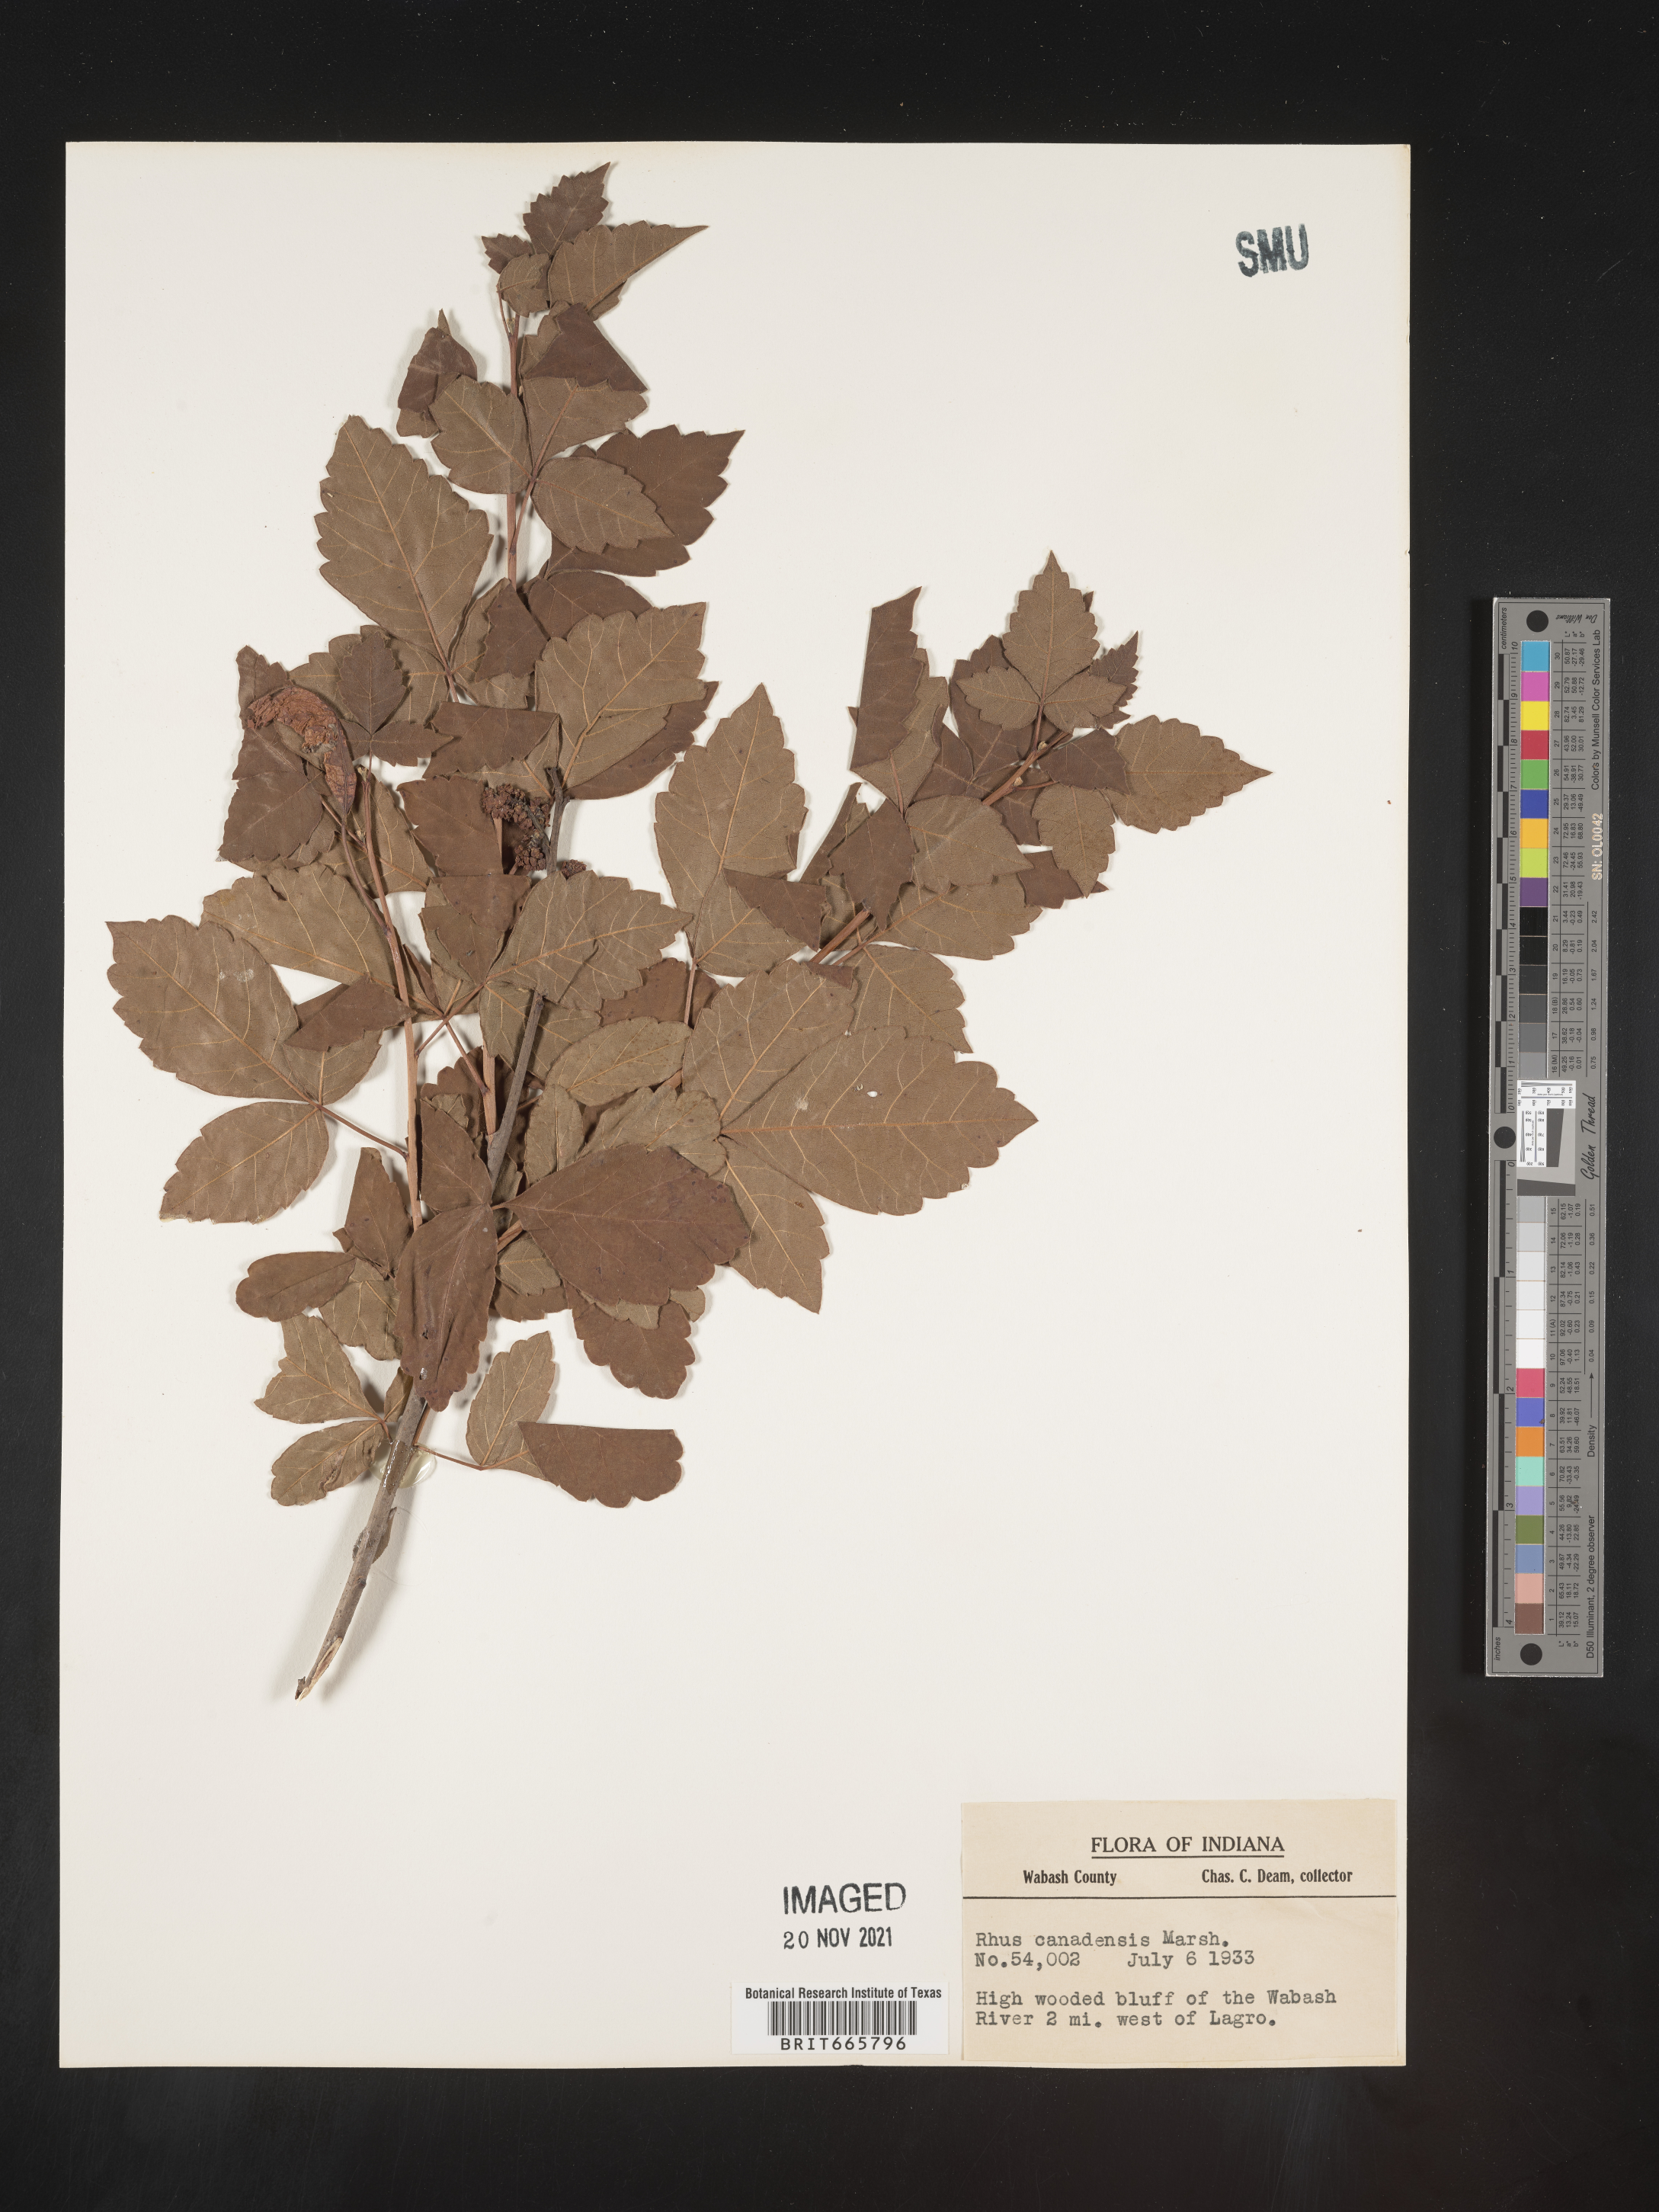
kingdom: Plantae
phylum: Tracheophyta
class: Magnoliopsida
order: Sapindales
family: Anacardiaceae
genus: Rhus
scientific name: Rhus aromatica
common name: Aromatic sumac
